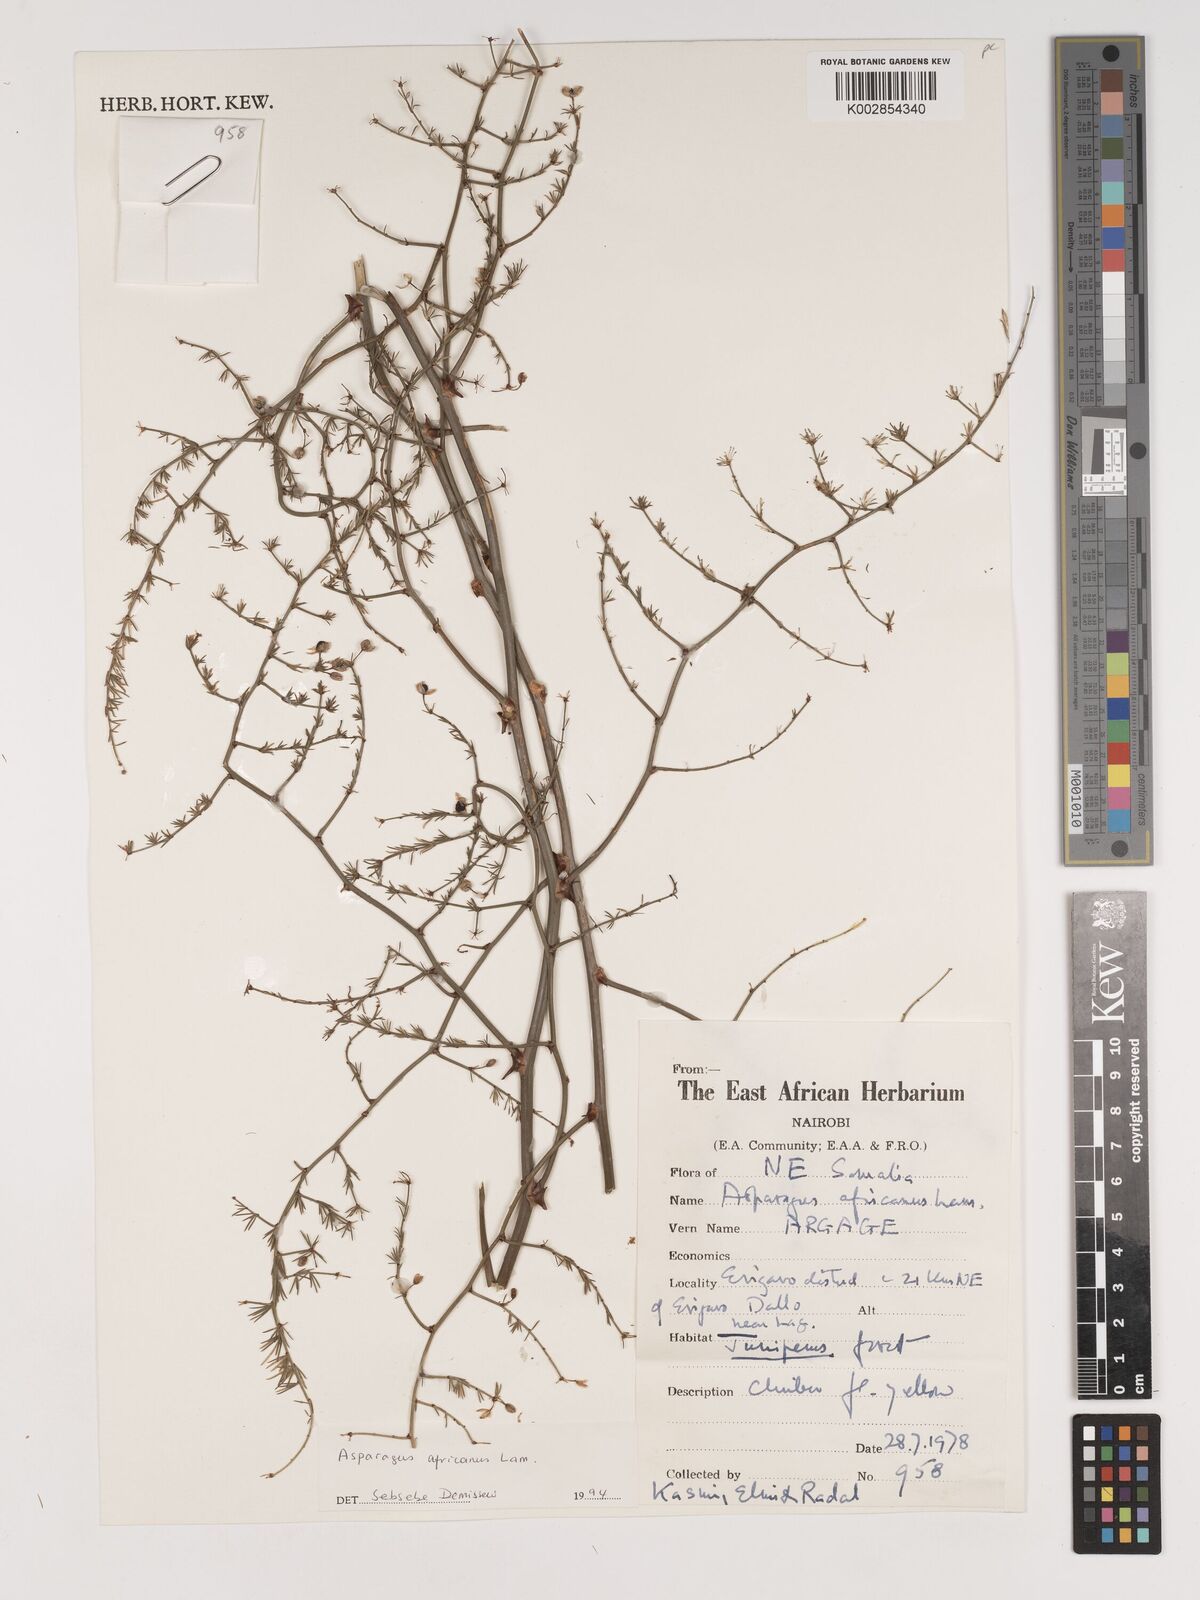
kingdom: Plantae
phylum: Tracheophyta
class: Liliopsida
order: Asparagales
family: Asparagaceae
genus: Asparagus
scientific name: Asparagus africanus
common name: Asparagus-fern
